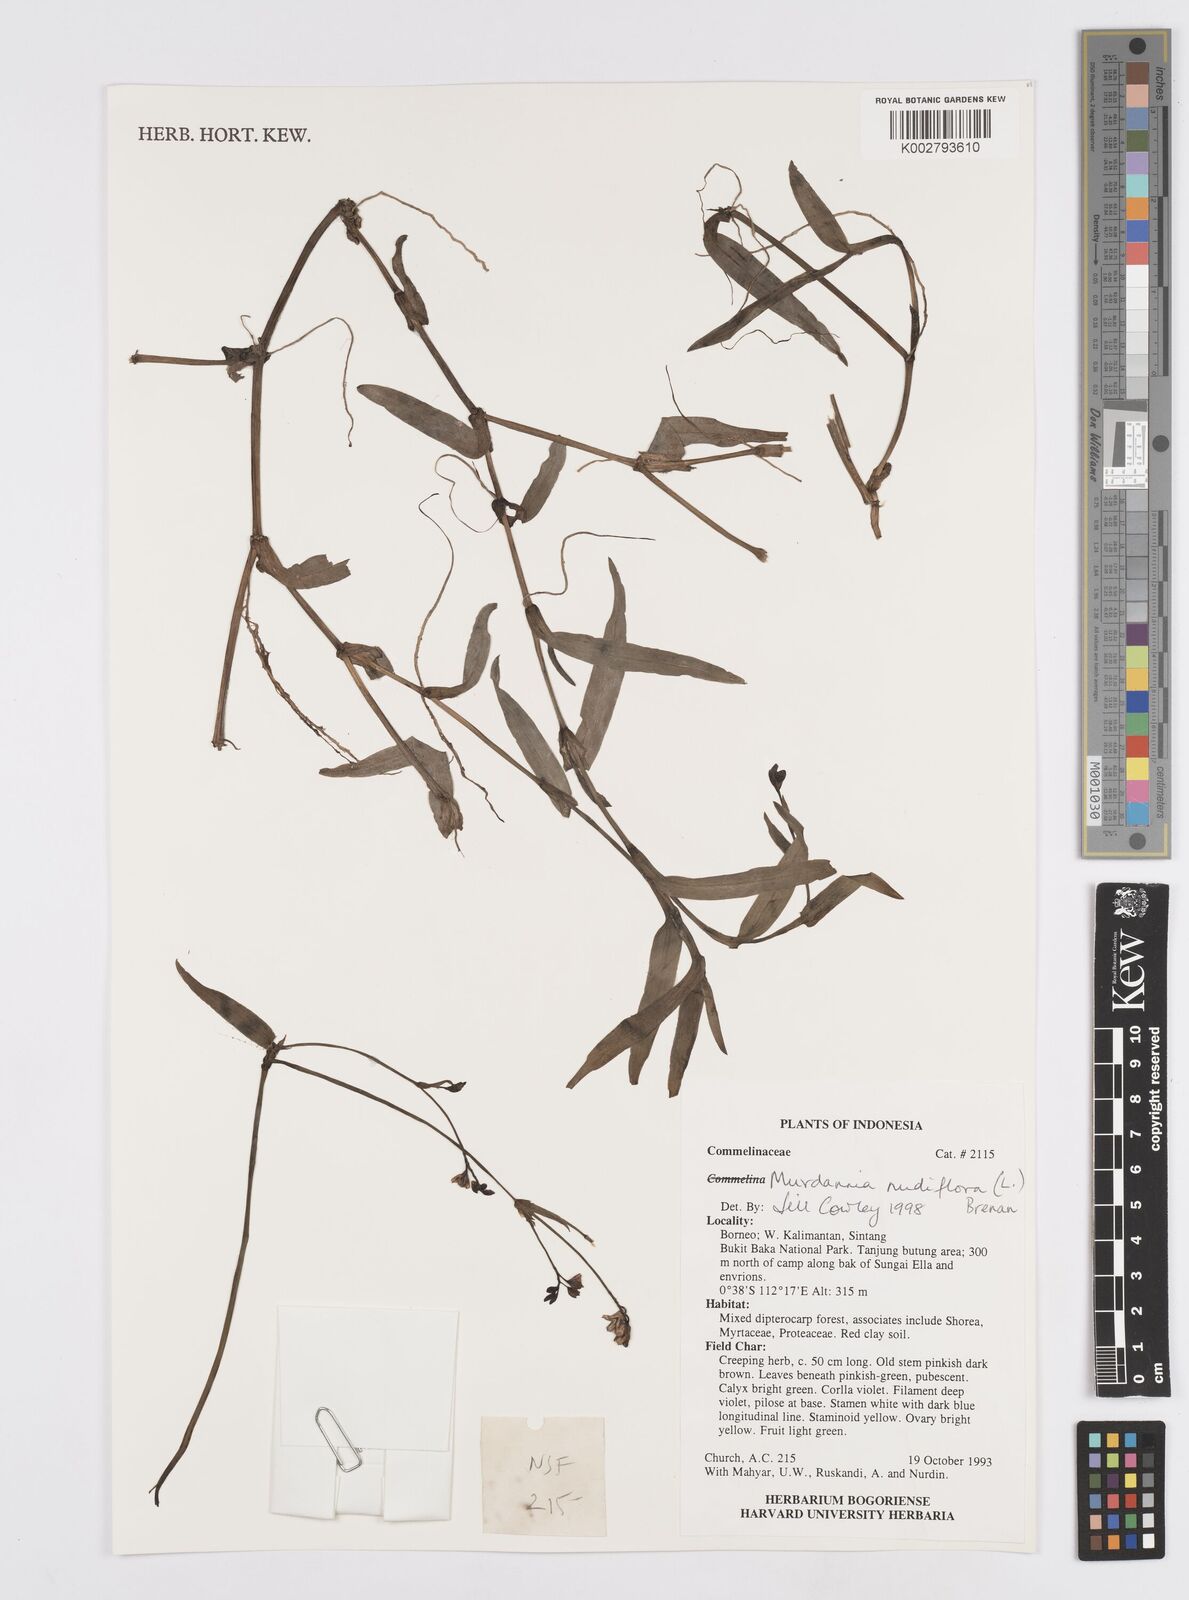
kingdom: Plantae
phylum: Tracheophyta
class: Liliopsida
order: Commelinales
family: Commelinaceae
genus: Murdannia
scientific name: Murdannia nudiflora
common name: Nakedstem dewflower
